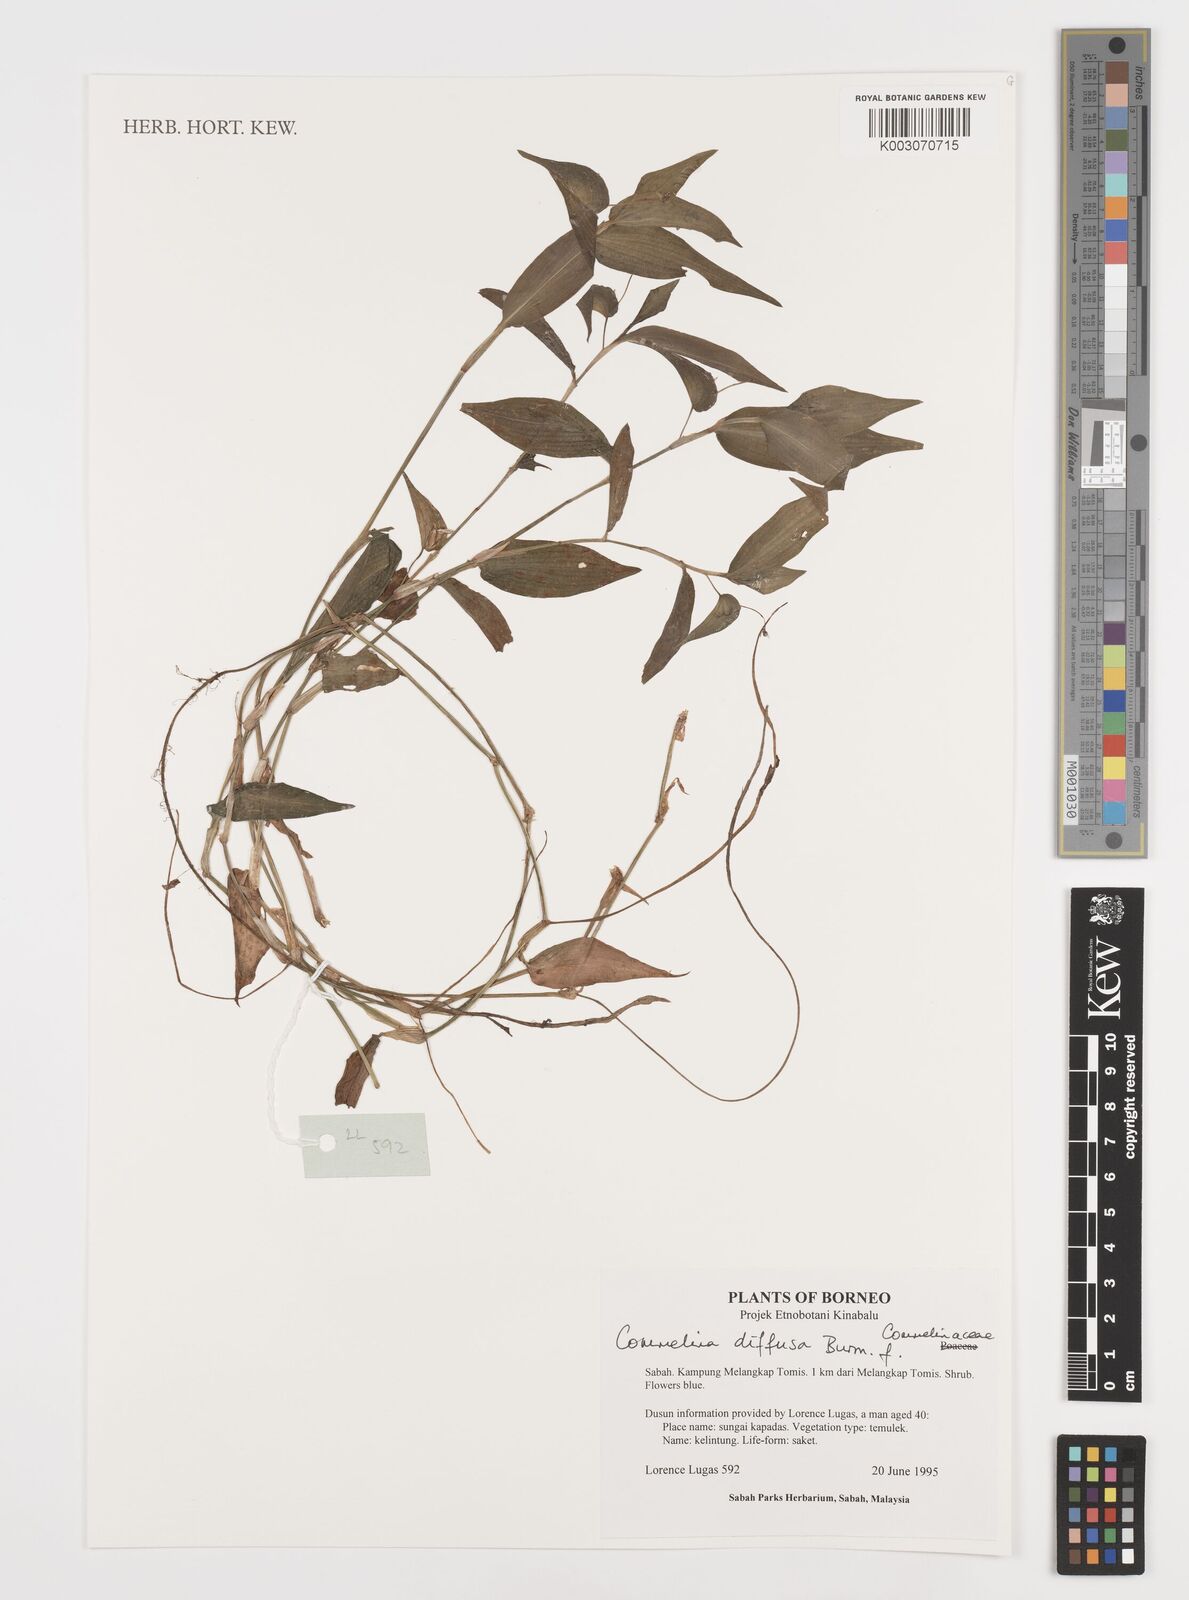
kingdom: Plantae
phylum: Tracheophyta
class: Liliopsida
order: Commelinales
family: Commelinaceae
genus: Commelina
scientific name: Commelina clavata
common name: Willow leaved dayflower
